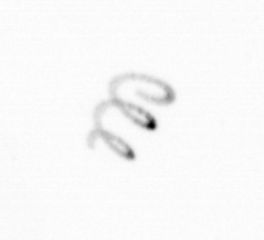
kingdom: Chromista
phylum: Ochrophyta
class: Bacillariophyceae
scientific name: Bacillariophyceae
